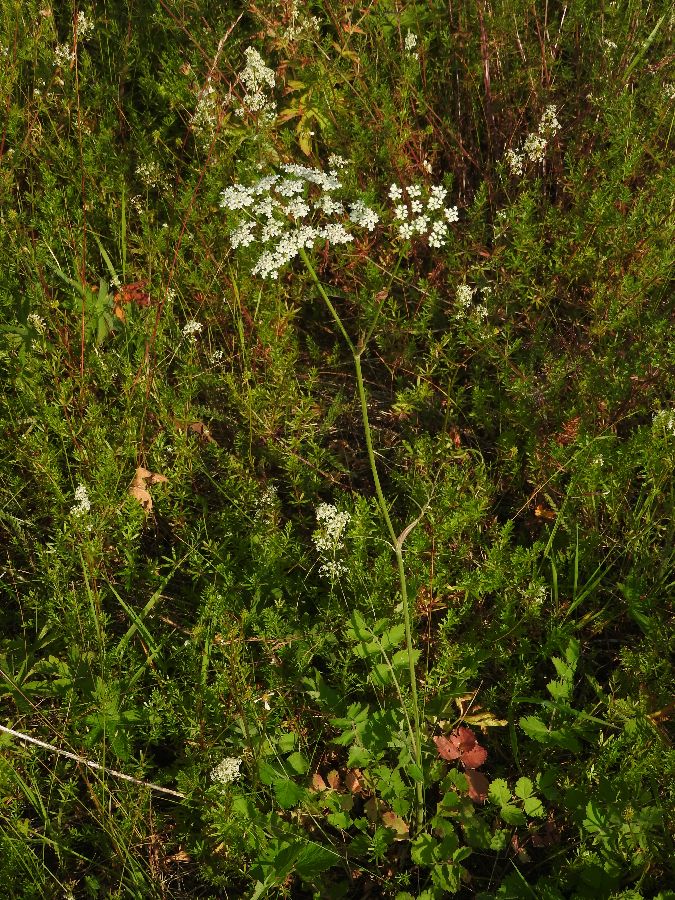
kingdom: Plantae
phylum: Tracheophyta
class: Magnoliopsida
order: Apiales
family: Apiaceae
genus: Pimpinella
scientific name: Pimpinella saxifraga
